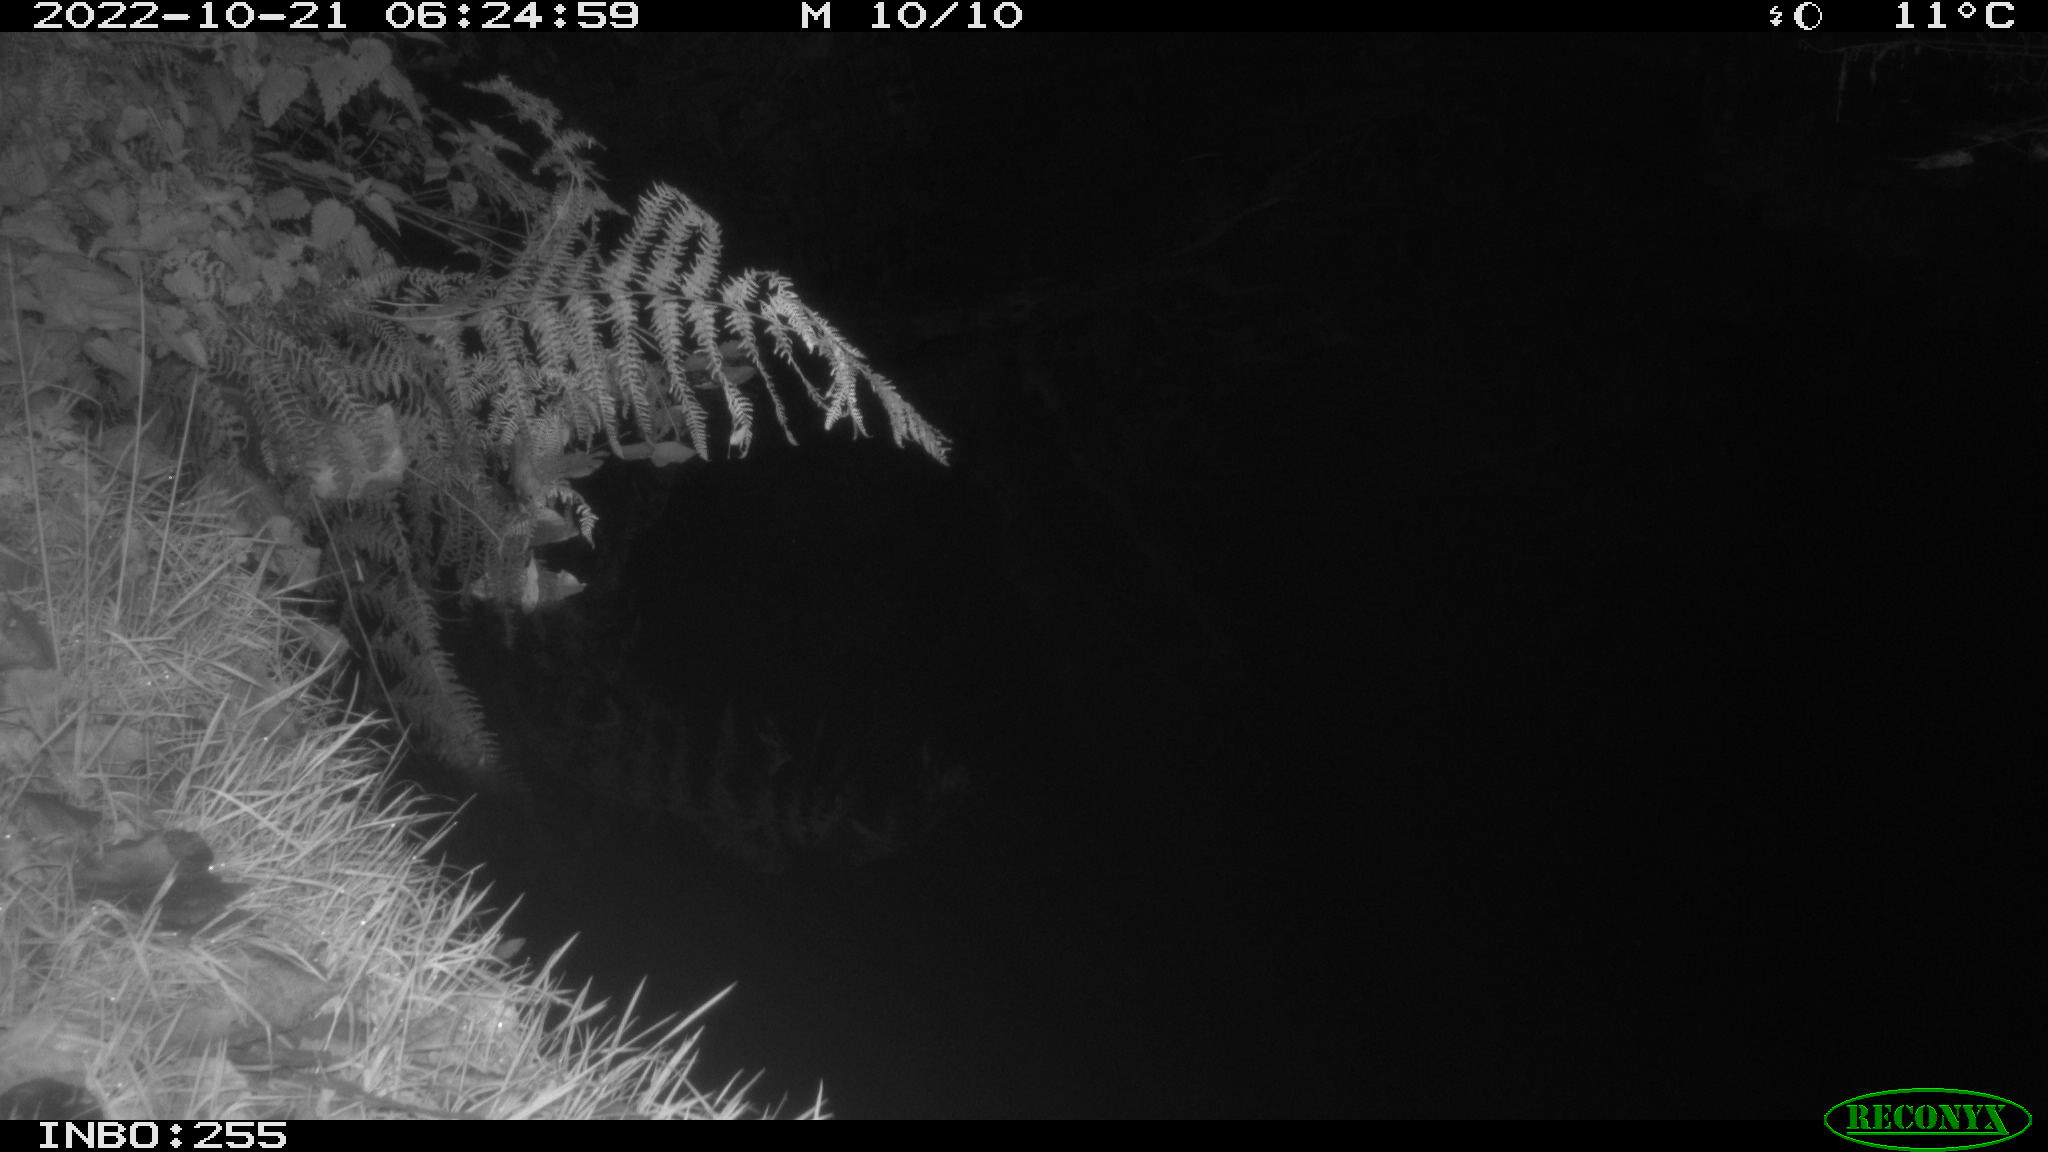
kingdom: Animalia
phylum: Chordata
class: Mammalia
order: Rodentia
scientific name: Rodentia
